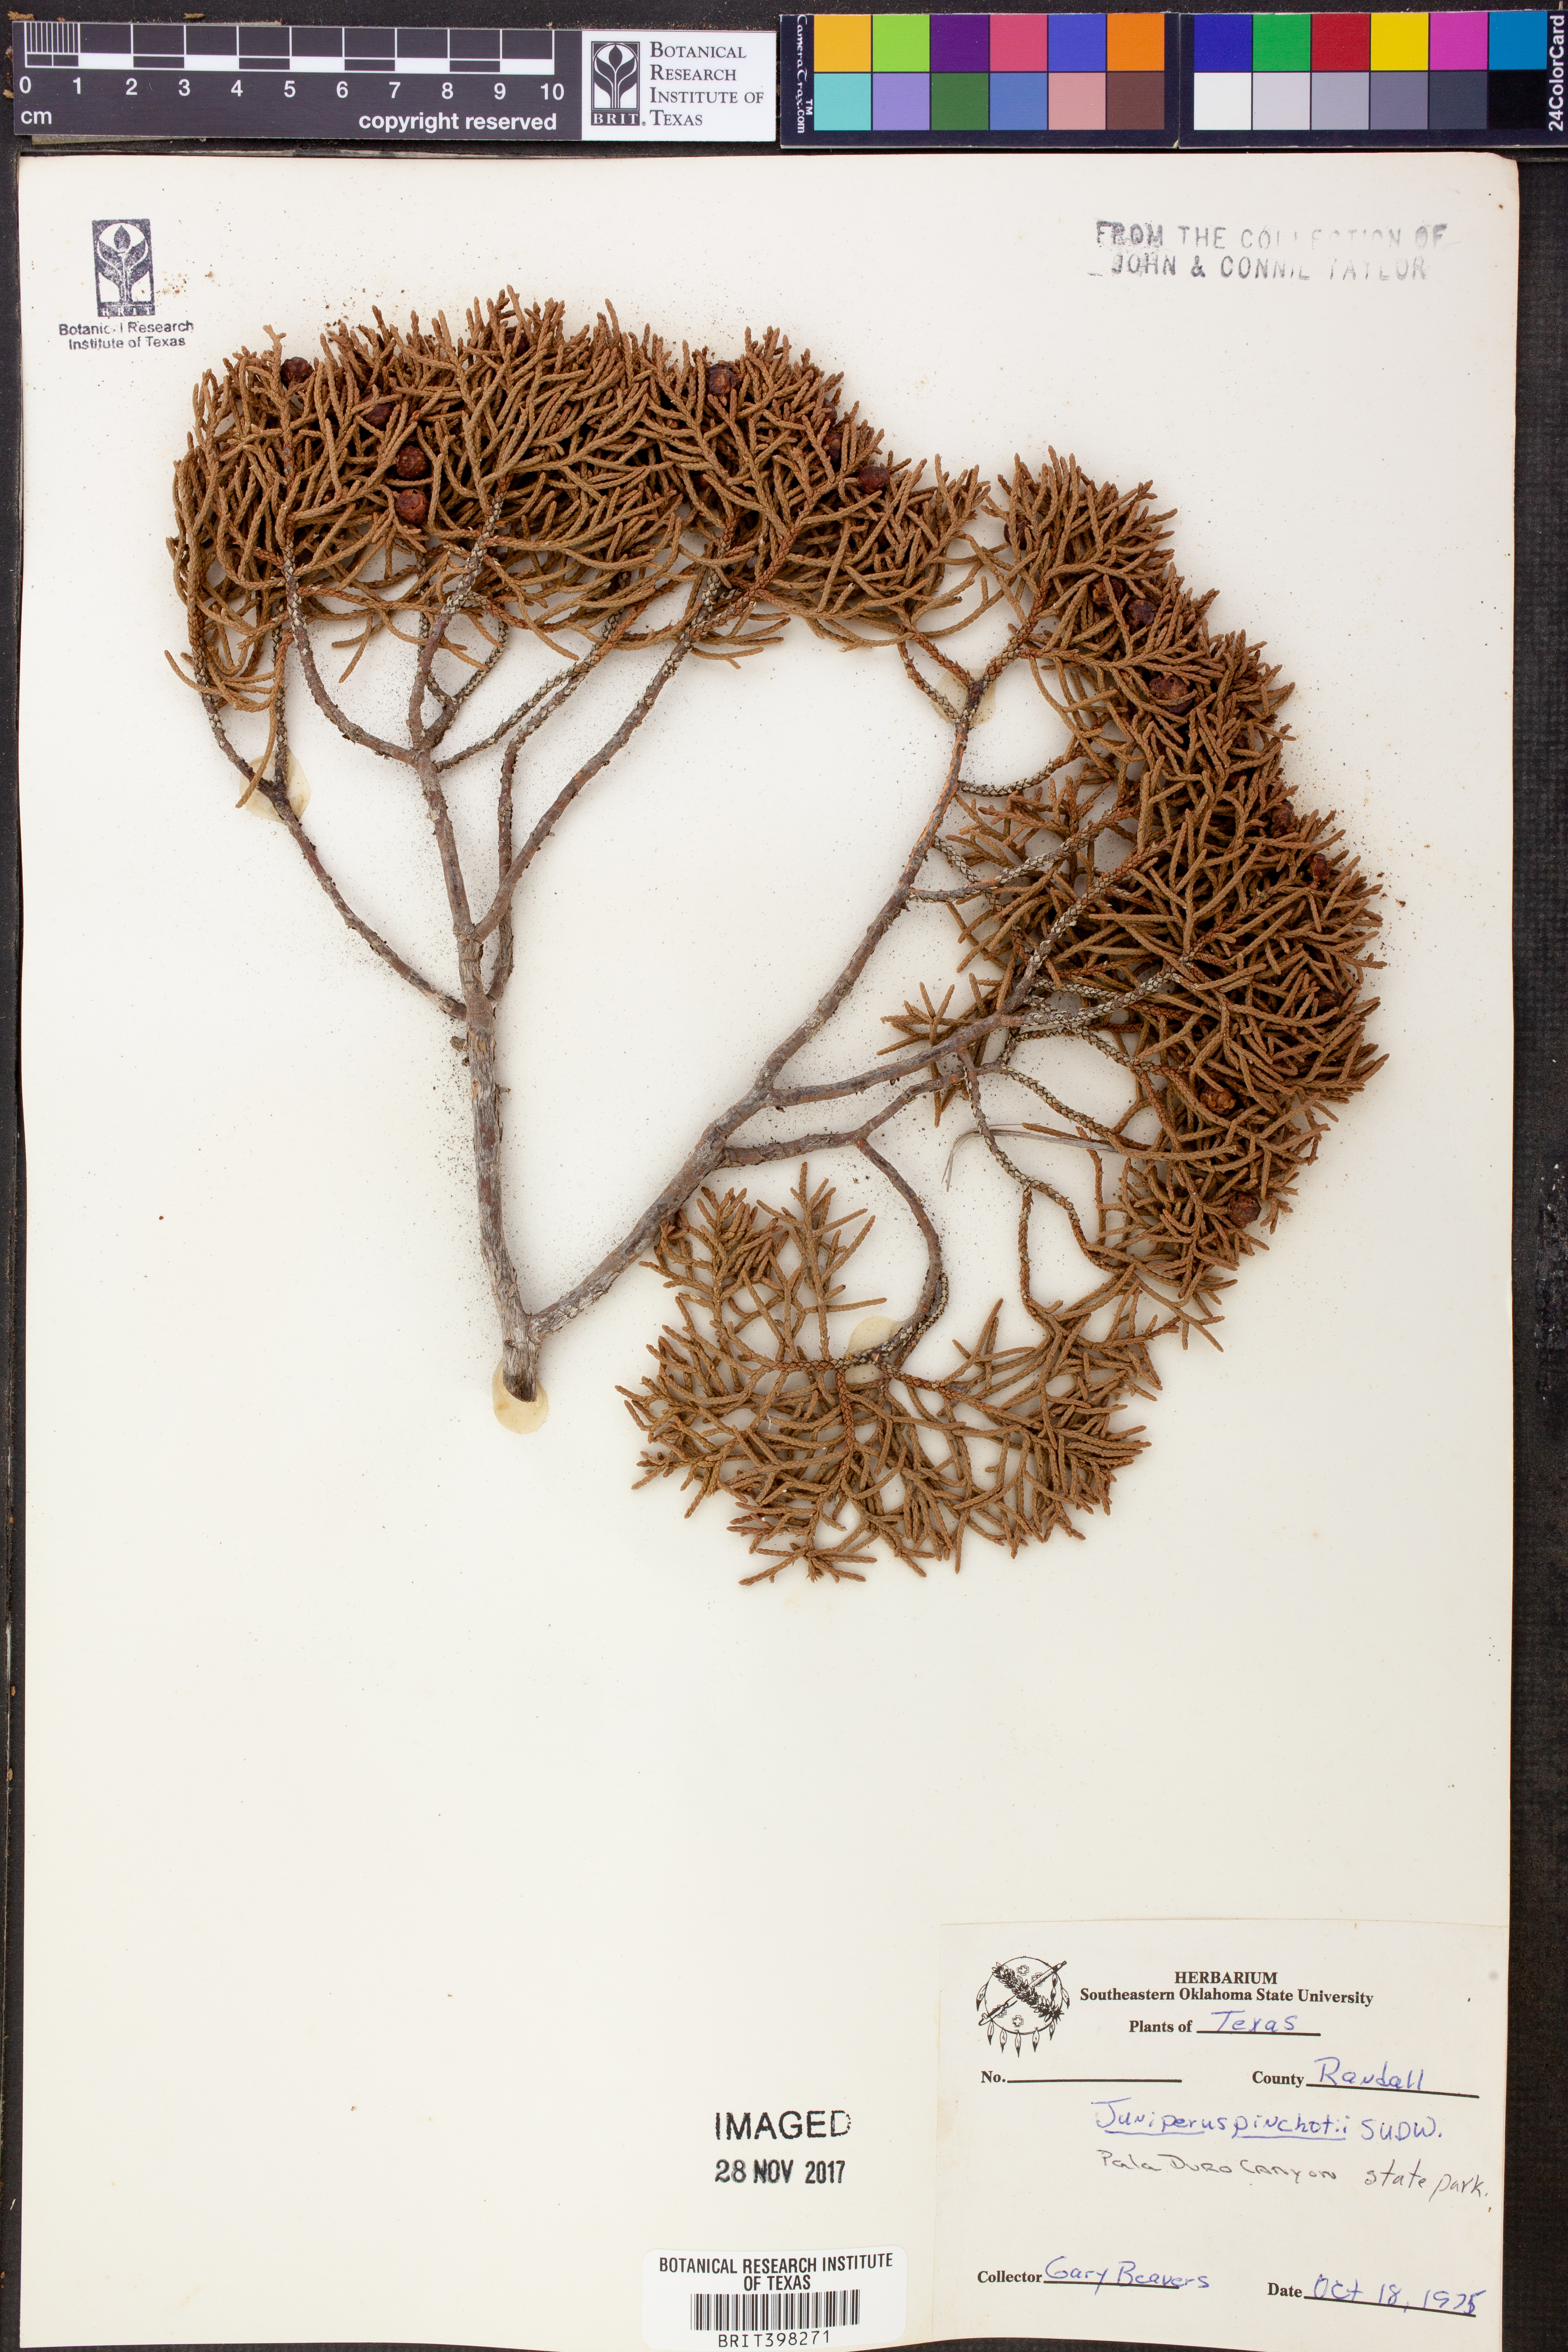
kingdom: Plantae
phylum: Tracheophyta
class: Pinopsida
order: Pinales
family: Cupressaceae
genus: Juniperus
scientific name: Juniperus pinchotii
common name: Pinchot juniper
